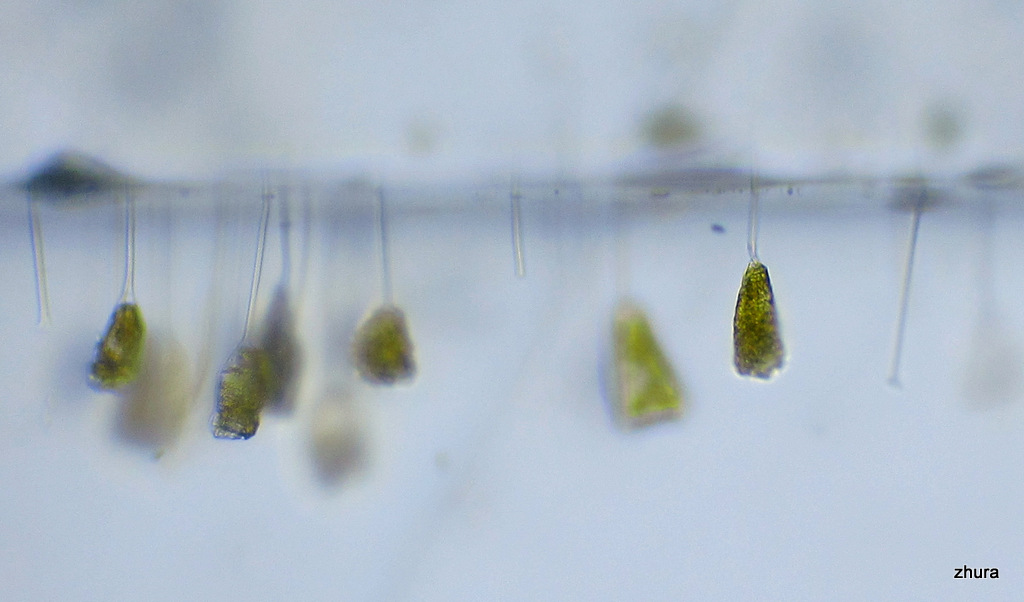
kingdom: Chromista
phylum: Ciliophora
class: Kinetofragminophora
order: Suctorida
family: Acinetidae
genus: Acineta
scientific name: Acineta tuberosa
